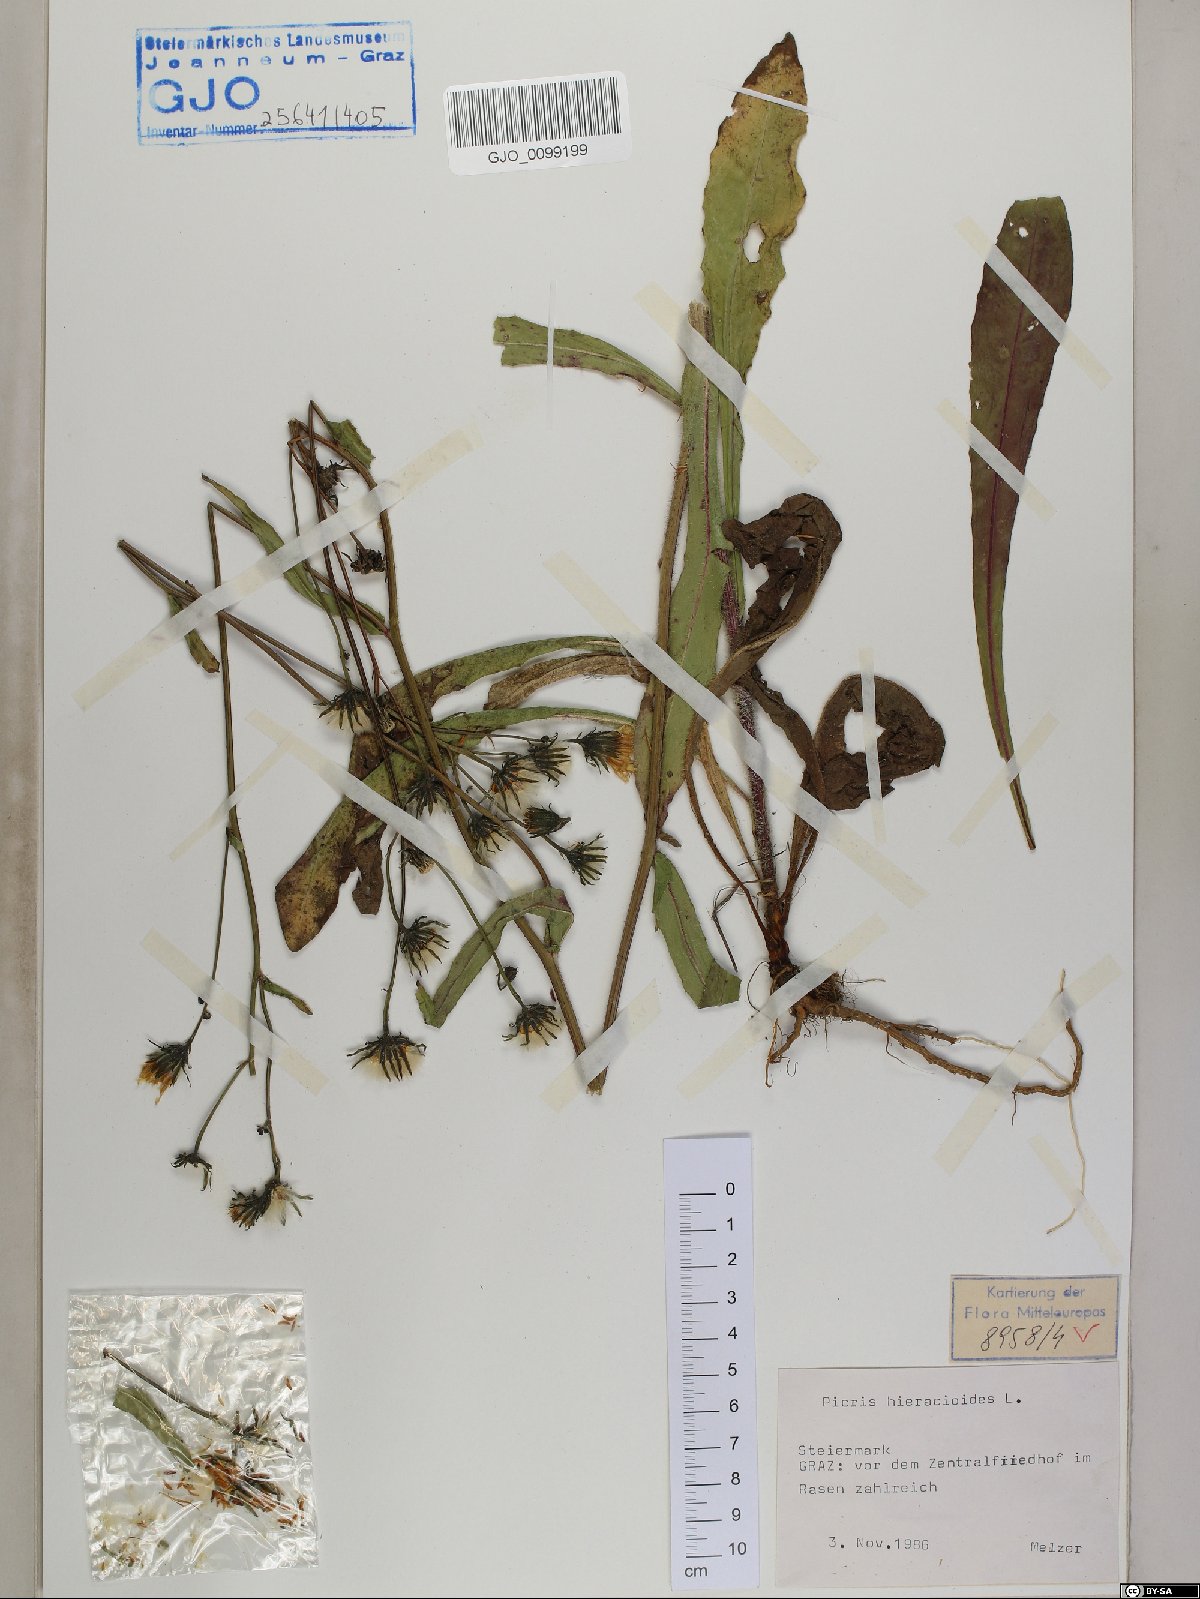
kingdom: Plantae
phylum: Tracheophyta
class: Magnoliopsida
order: Asterales
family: Asteraceae
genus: Picris
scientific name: Picris hieracioides
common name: Hawkweed oxtongue
